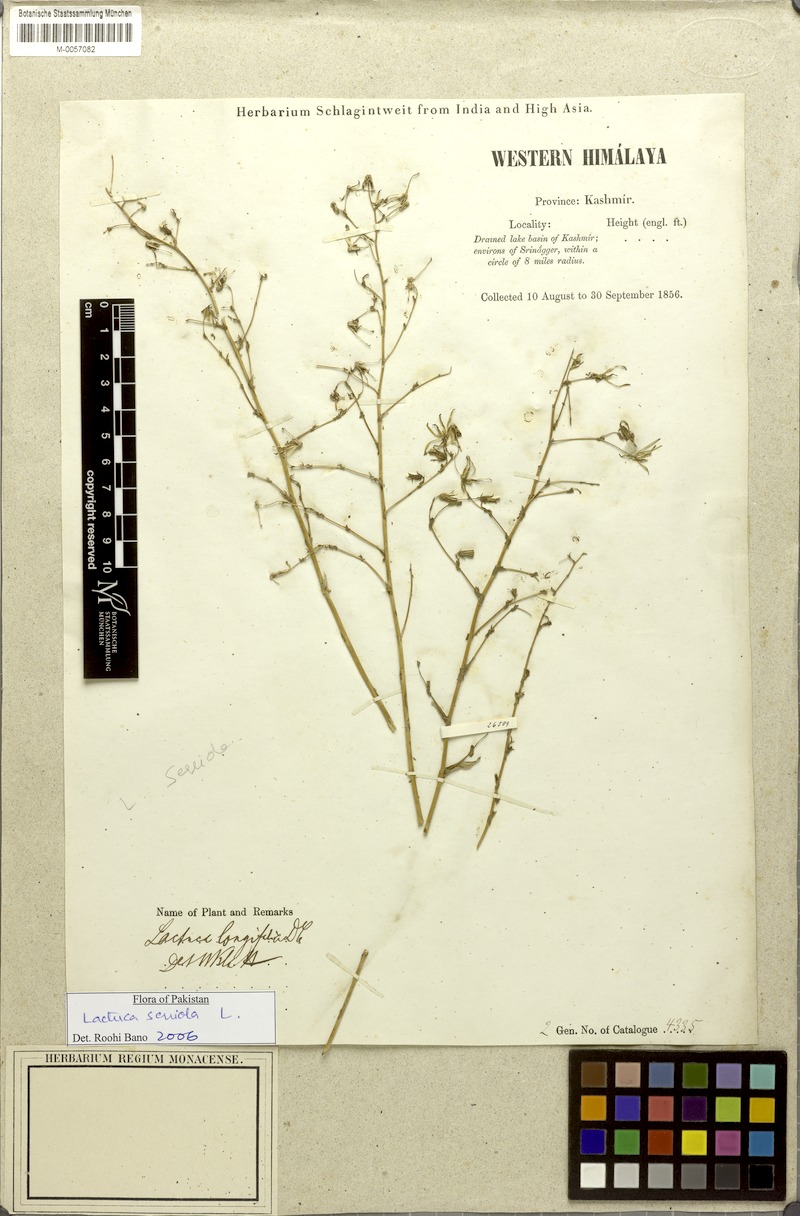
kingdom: Plantae
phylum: Tracheophyta
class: Magnoliopsida
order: Asterales
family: Asteraceae
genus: Lactuca
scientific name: Lactuca serriola
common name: Prickly lettuce
